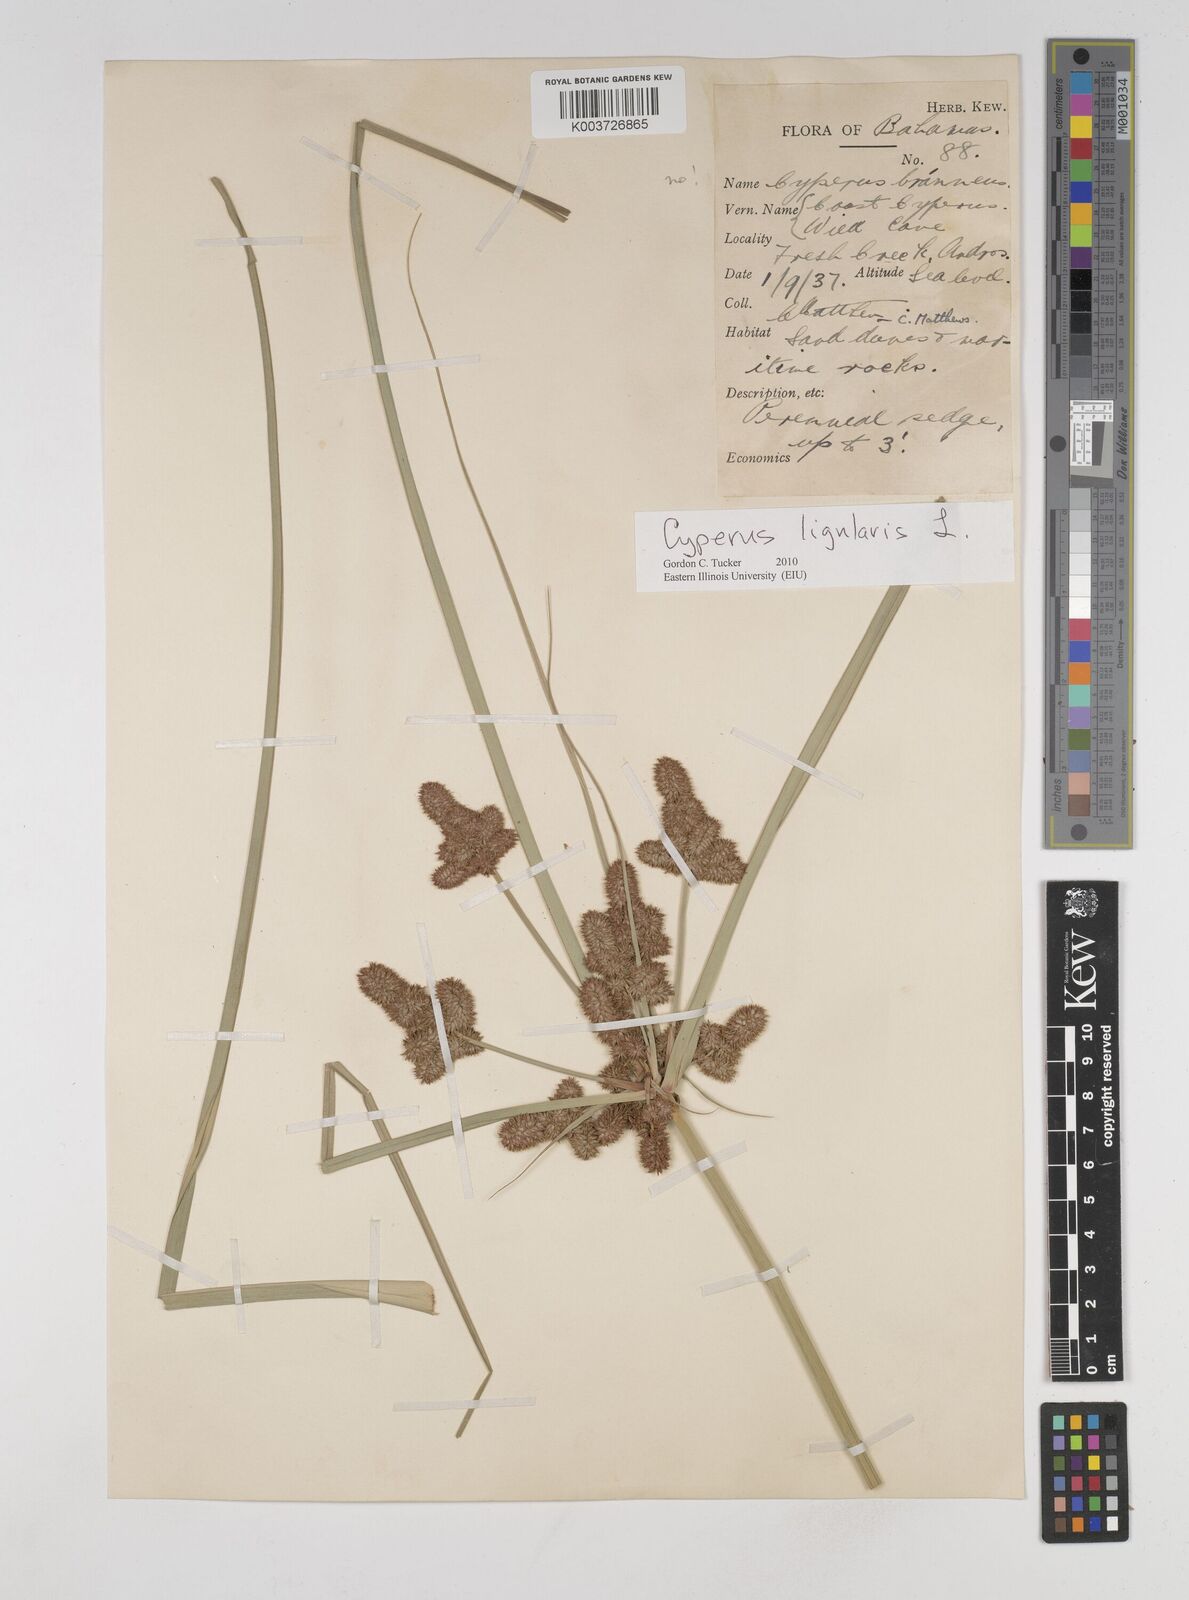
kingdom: Plantae
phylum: Tracheophyta
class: Liliopsida
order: Poales
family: Cyperaceae
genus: Cyperus
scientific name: Cyperus ligularis
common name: Swamp flat sedge
